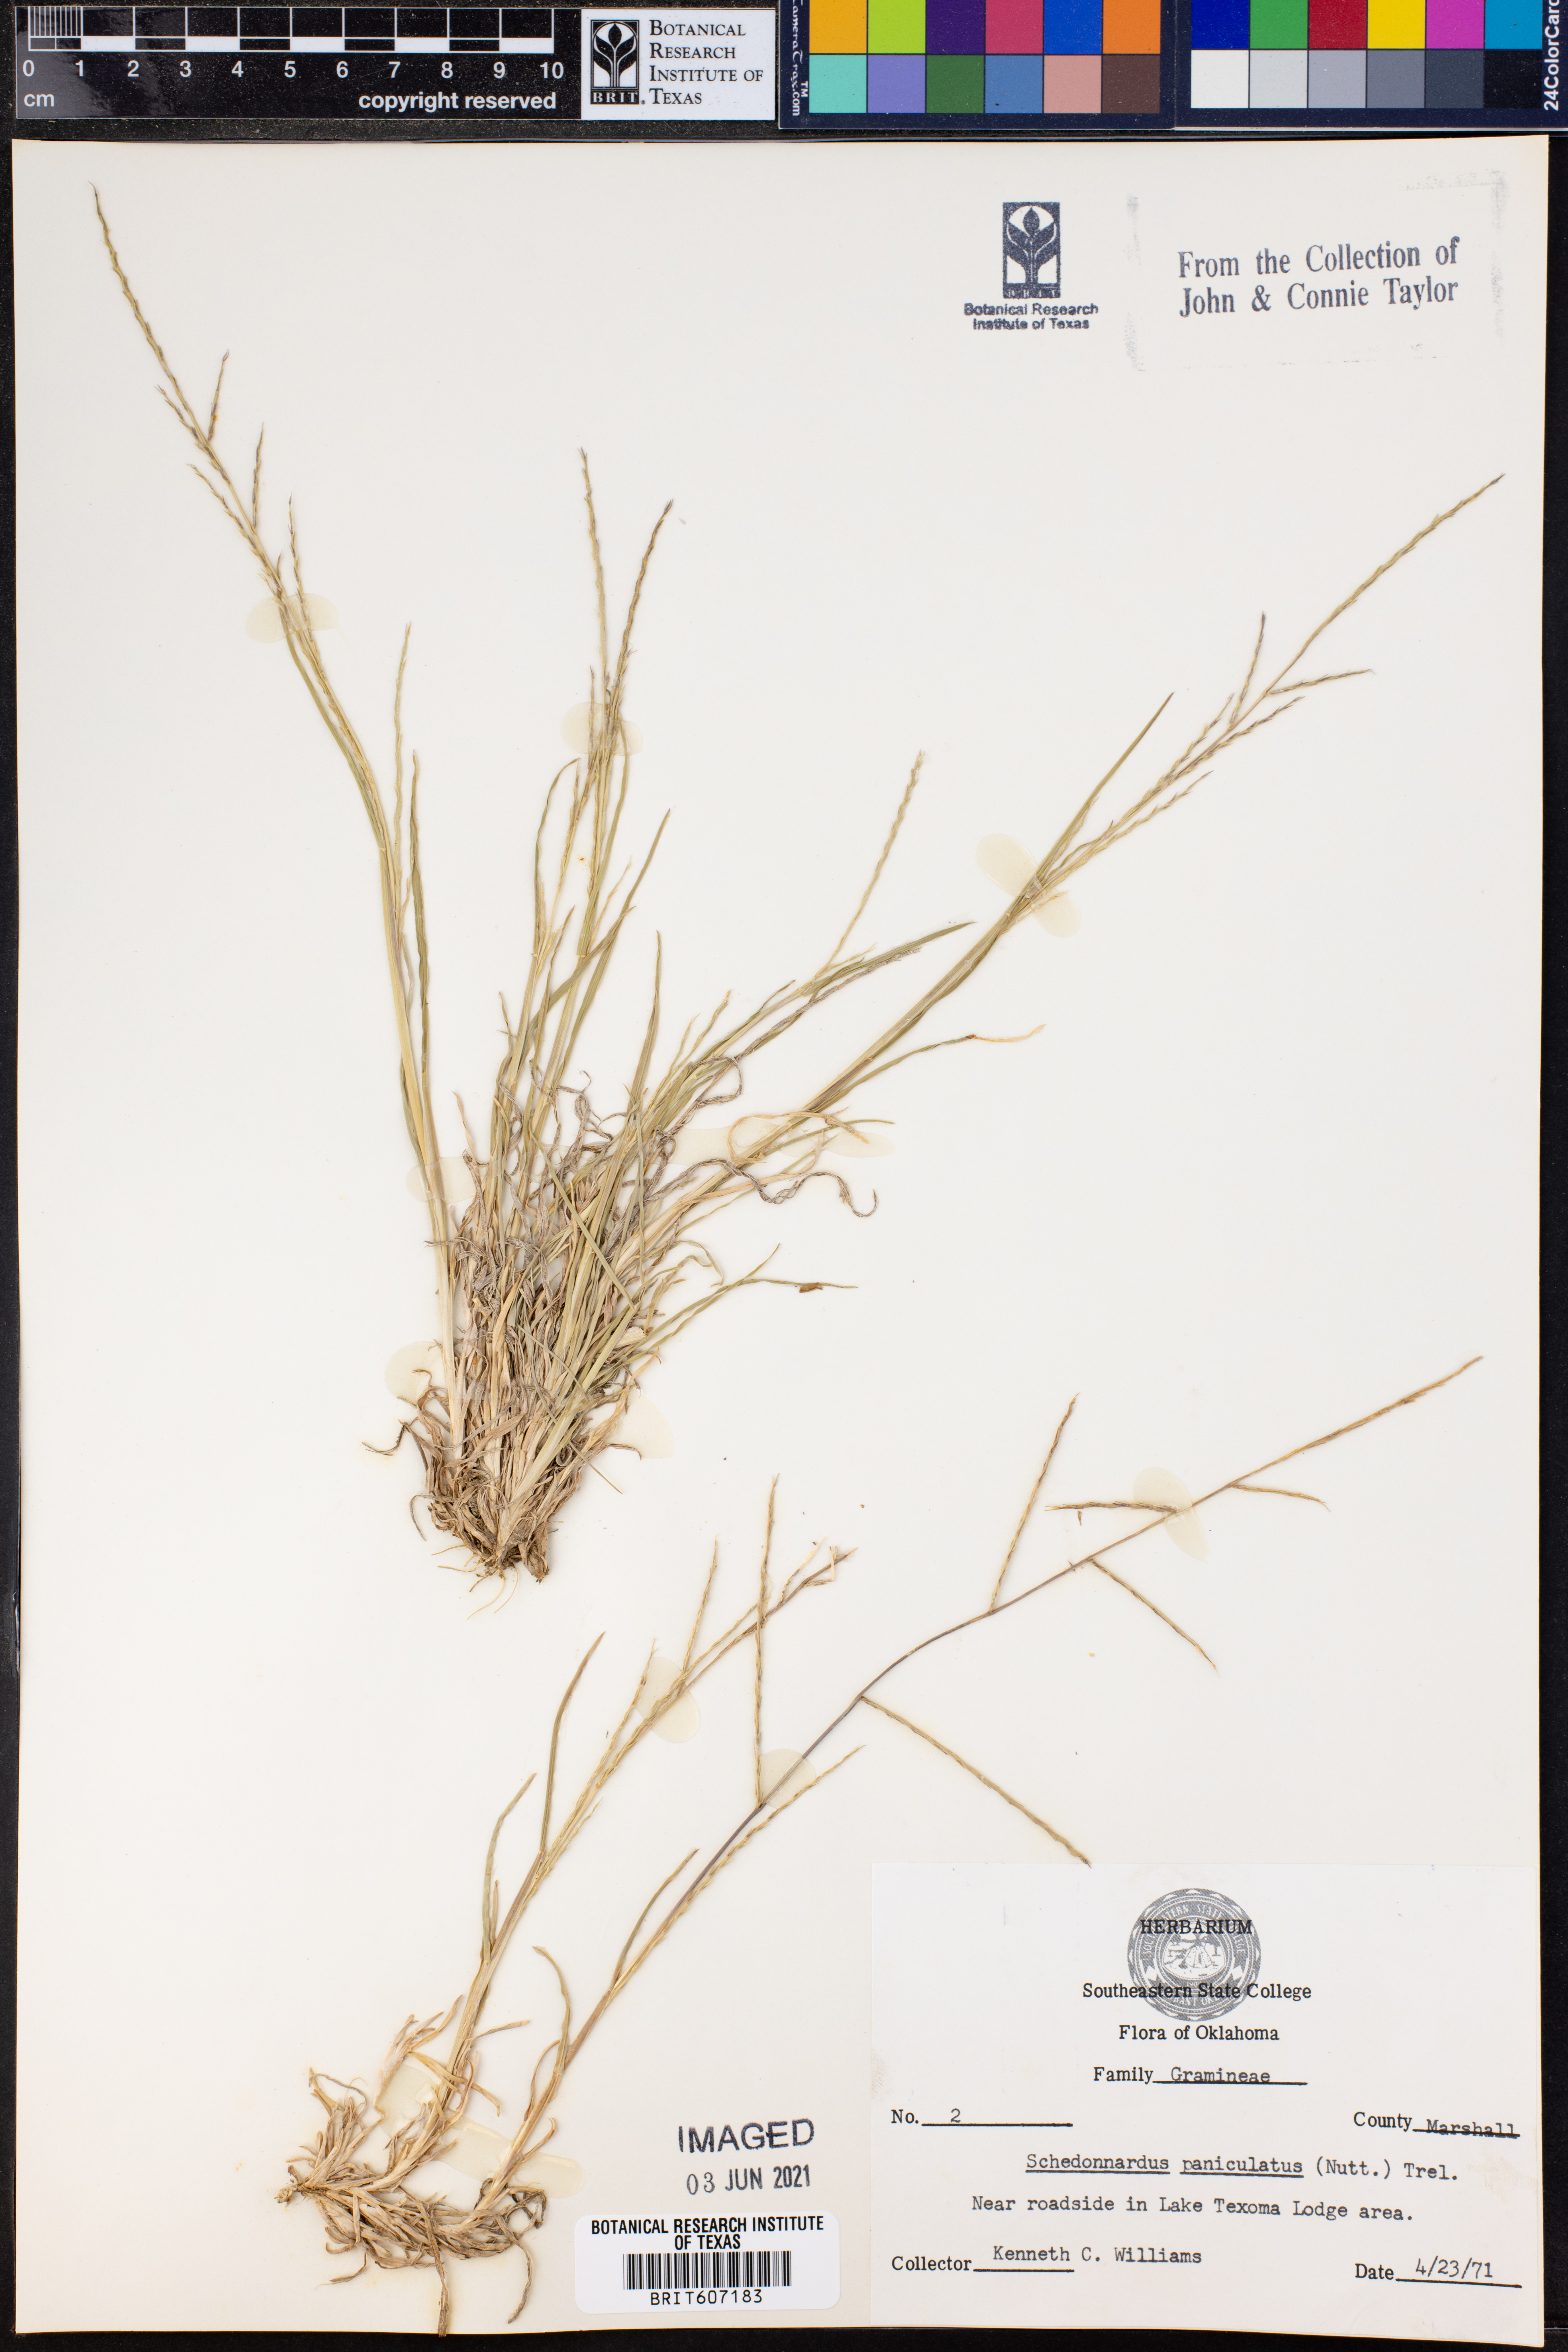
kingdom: Plantae
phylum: Tracheophyta
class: Liliopsida
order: Poales
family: Poaceae
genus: Muhlenbergia
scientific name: Muhlenbergia paniculata
